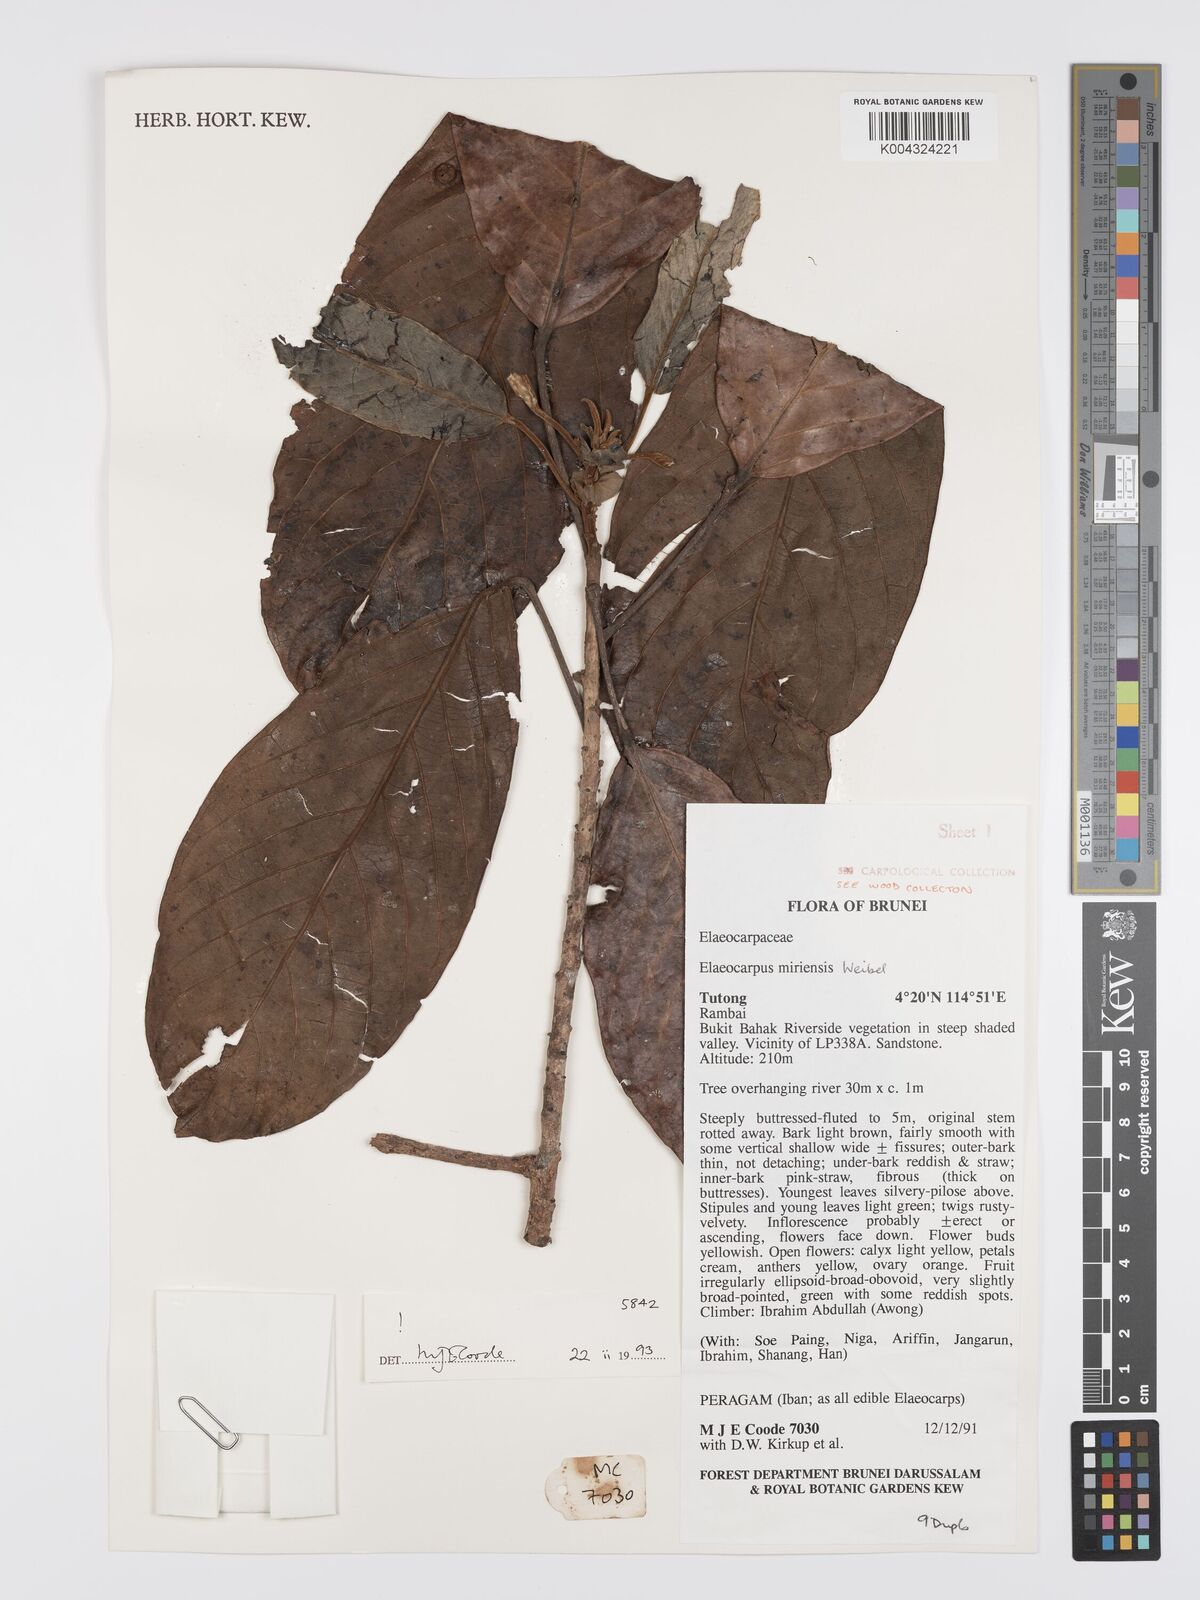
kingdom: Plantae
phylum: Tracheophyta
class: Magnoliopsida
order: Oxalidales
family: Elaeocarpaceae
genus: Elaeocarpus
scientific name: Elaeocarpus miriensis
